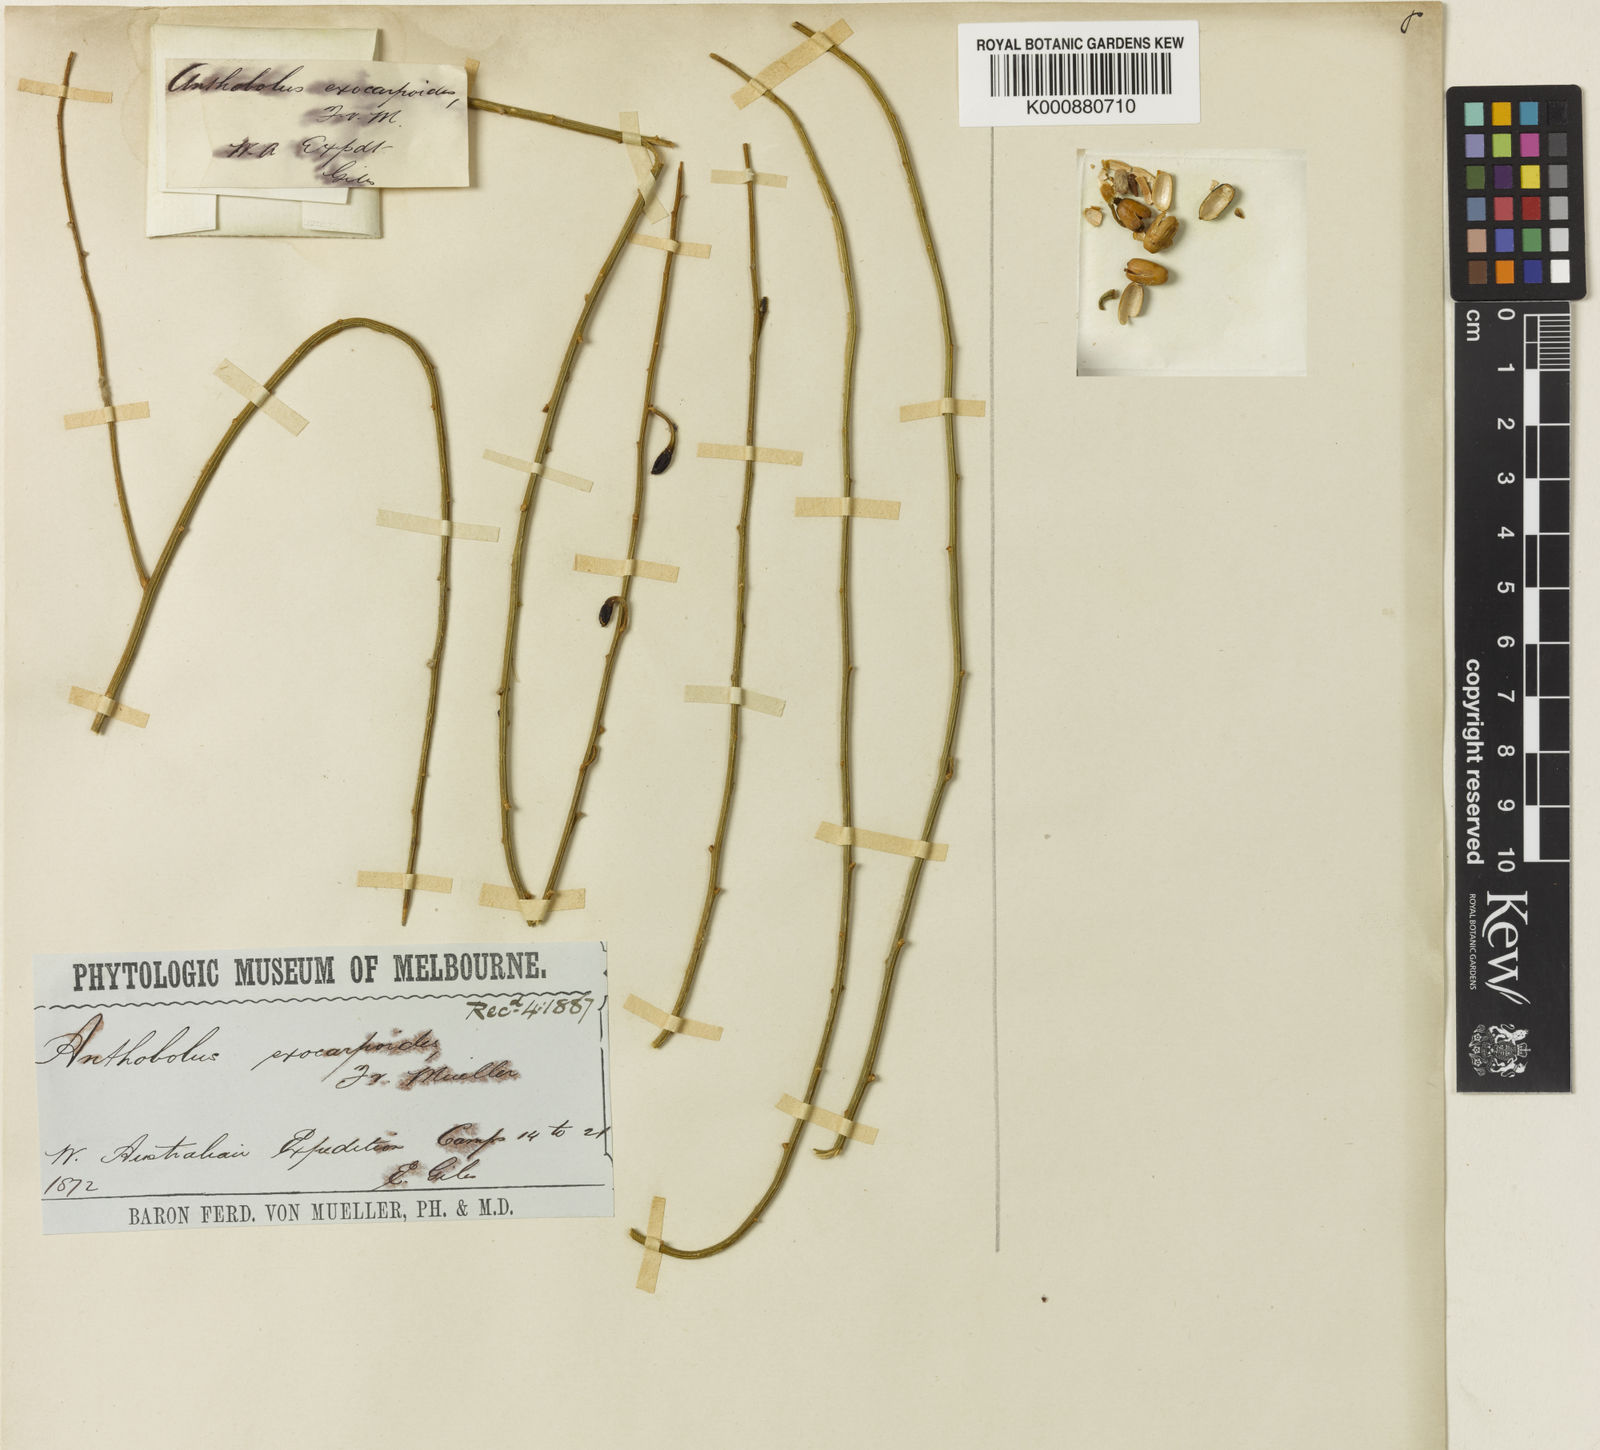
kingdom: Plantae
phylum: Tracheophyta
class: Magnoliopsida
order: Santalales
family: Opiliaceae
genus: Anthobolus
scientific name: Anthobolus
